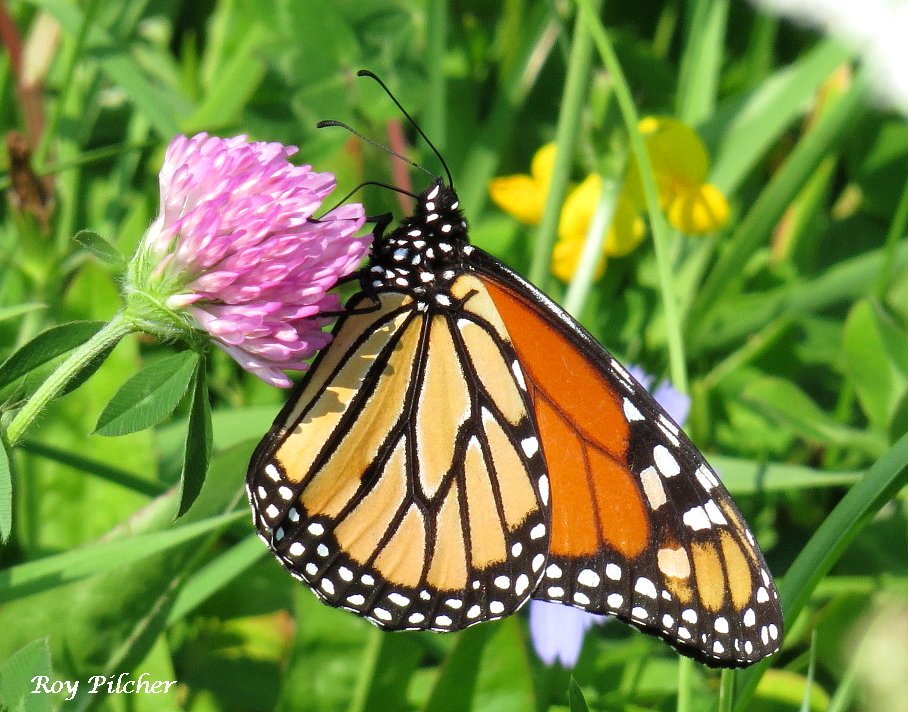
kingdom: Animalia
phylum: Arthropoda
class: Insecta
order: Lepidoptera
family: Nymphalidae
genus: Danaus
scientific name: Danaus plexippus
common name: Monarch
